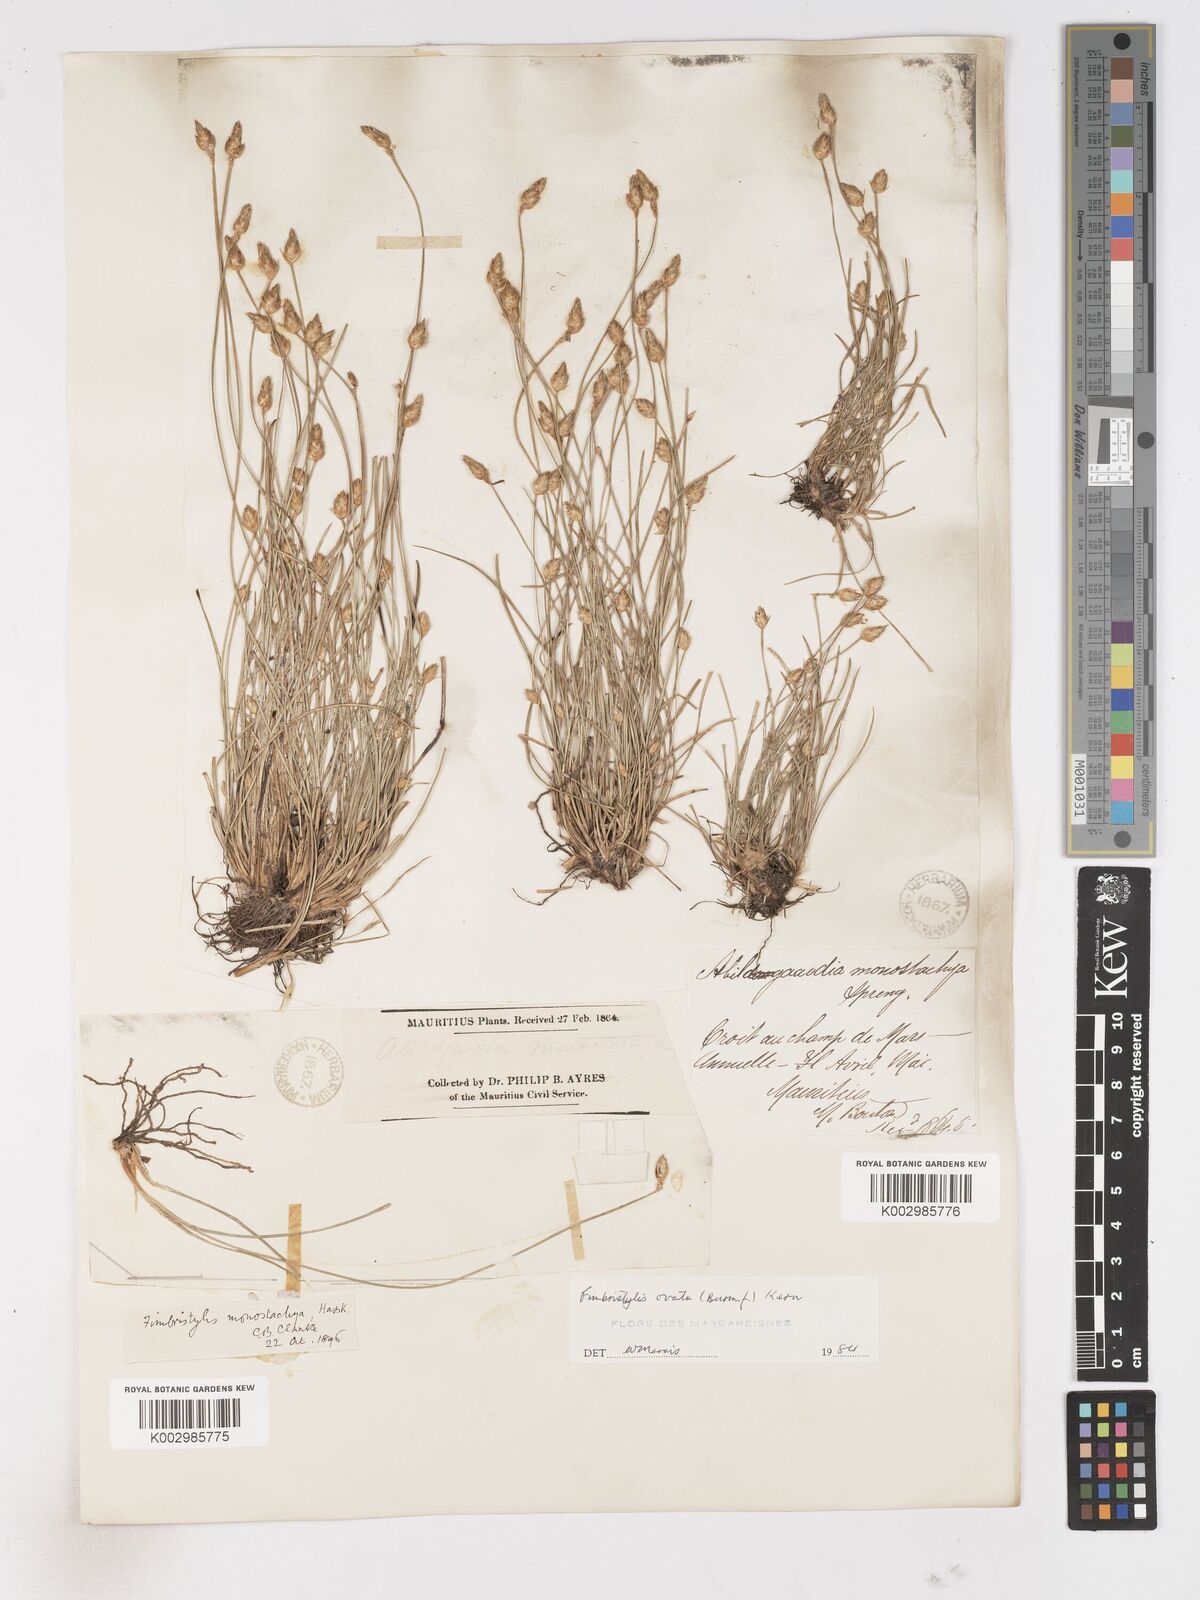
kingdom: Plantae
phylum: Tracheophyta
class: Liliopsida
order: Poales
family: Cyperaceae
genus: Abildgaardia
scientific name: Abildgaardia ovata
